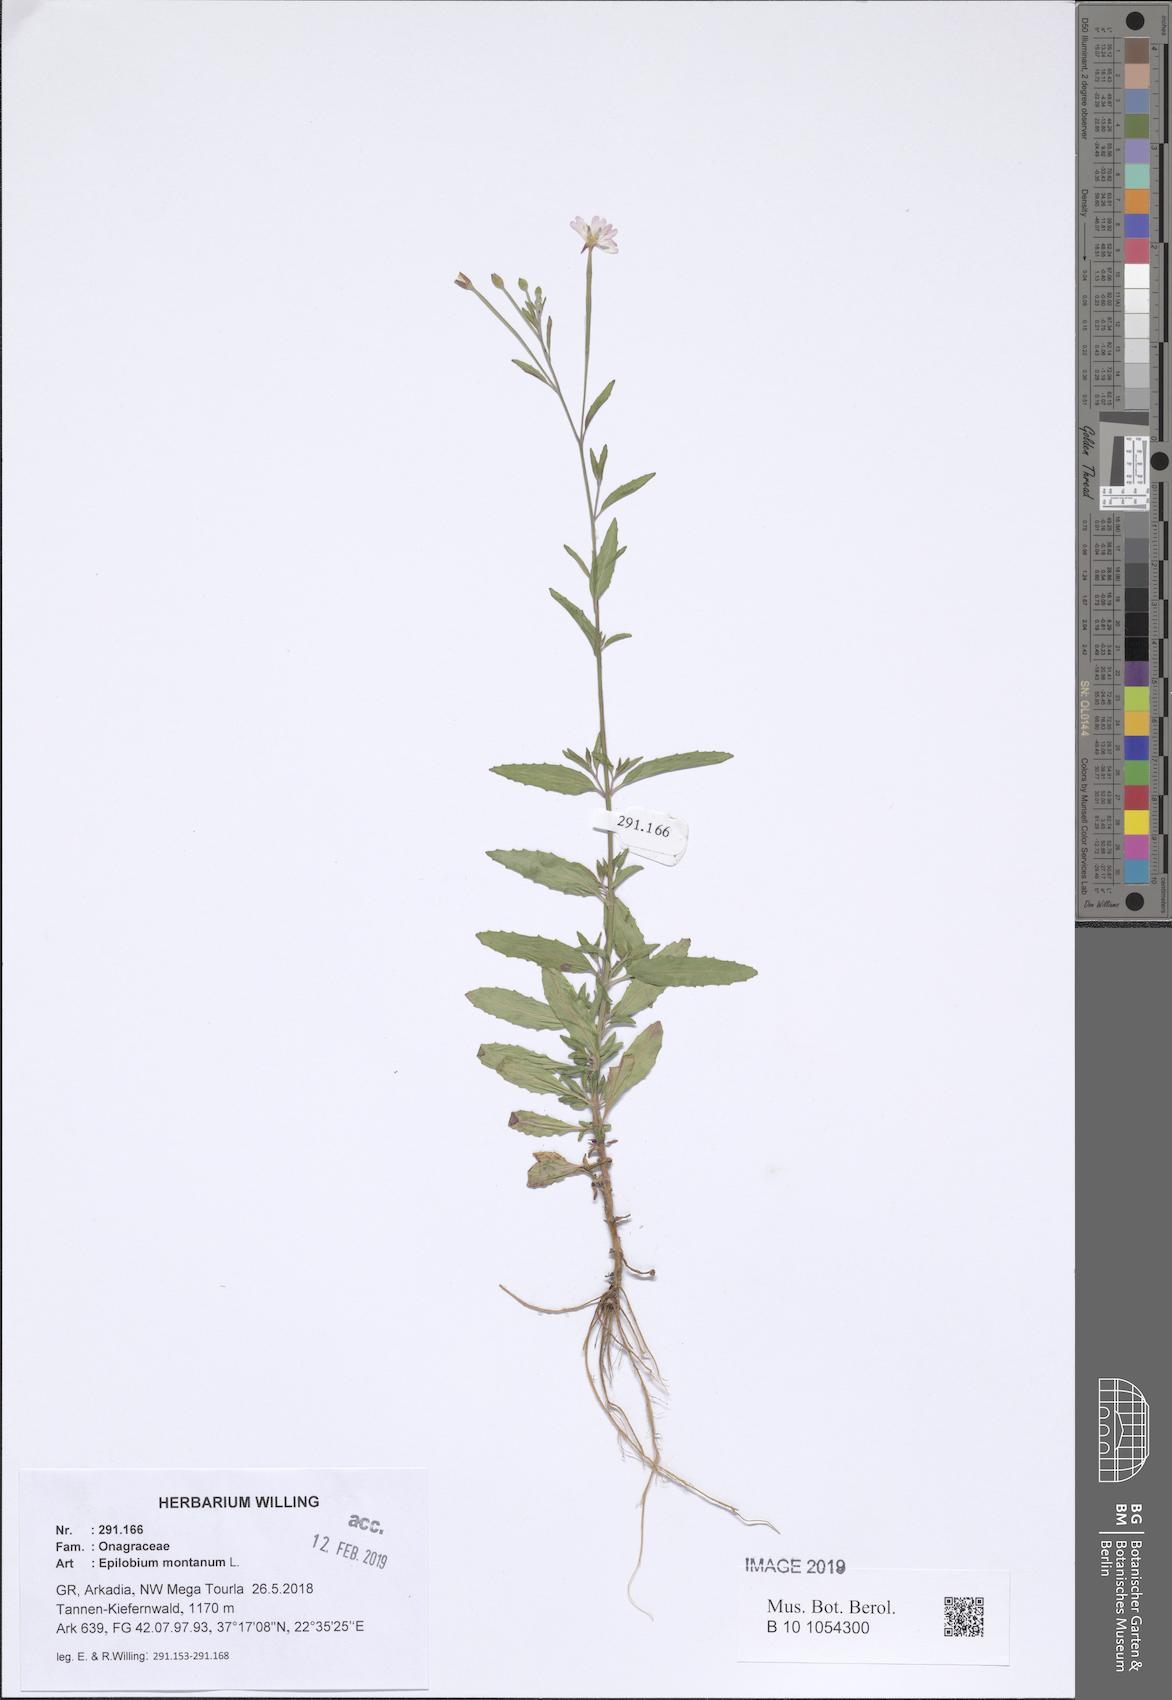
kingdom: Plantae
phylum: Tracheophyta
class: Magnoliopsida
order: Myrtales
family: Onagraceae
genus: Epilobium
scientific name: Epilobium lanceolatum
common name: Spear-leaved willowherb
